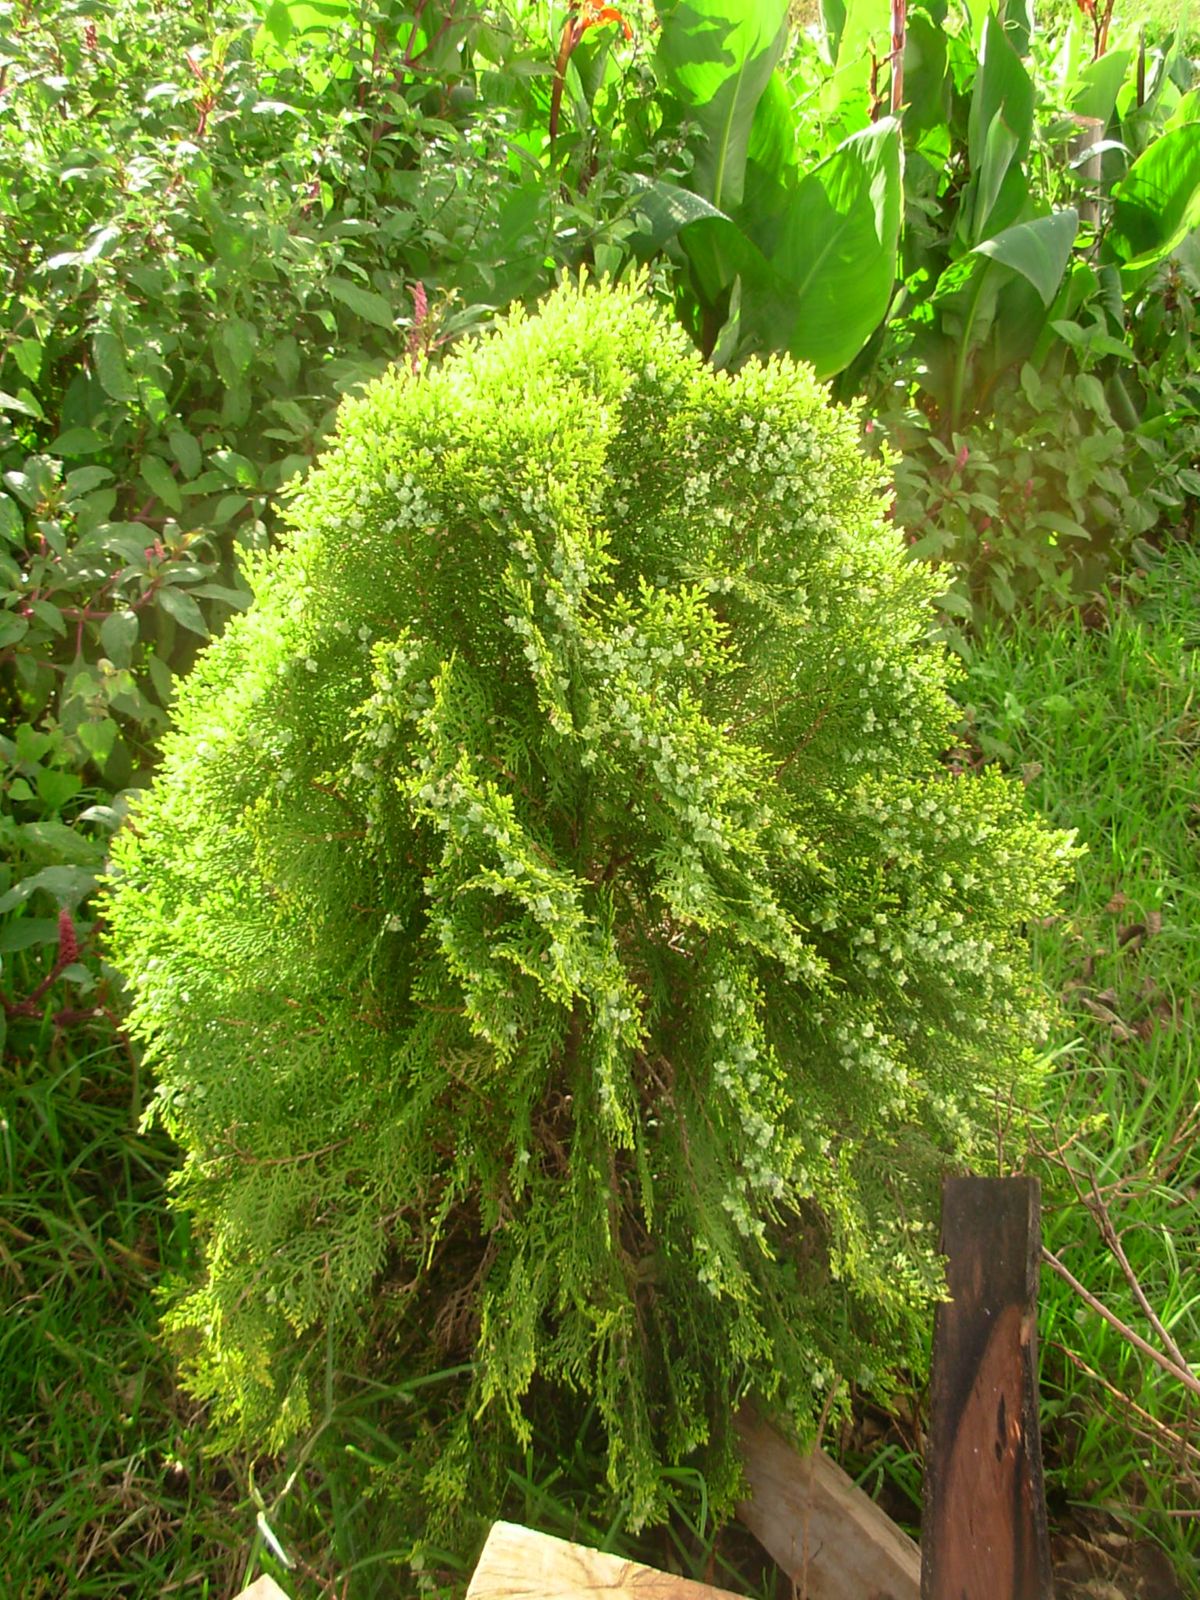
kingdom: Plantae
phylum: Tracheophyta
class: Pinopsida
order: Pinales
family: Cupressaceae
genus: Platycladus
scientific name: Platycladus orientalis
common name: Chinese thuja
